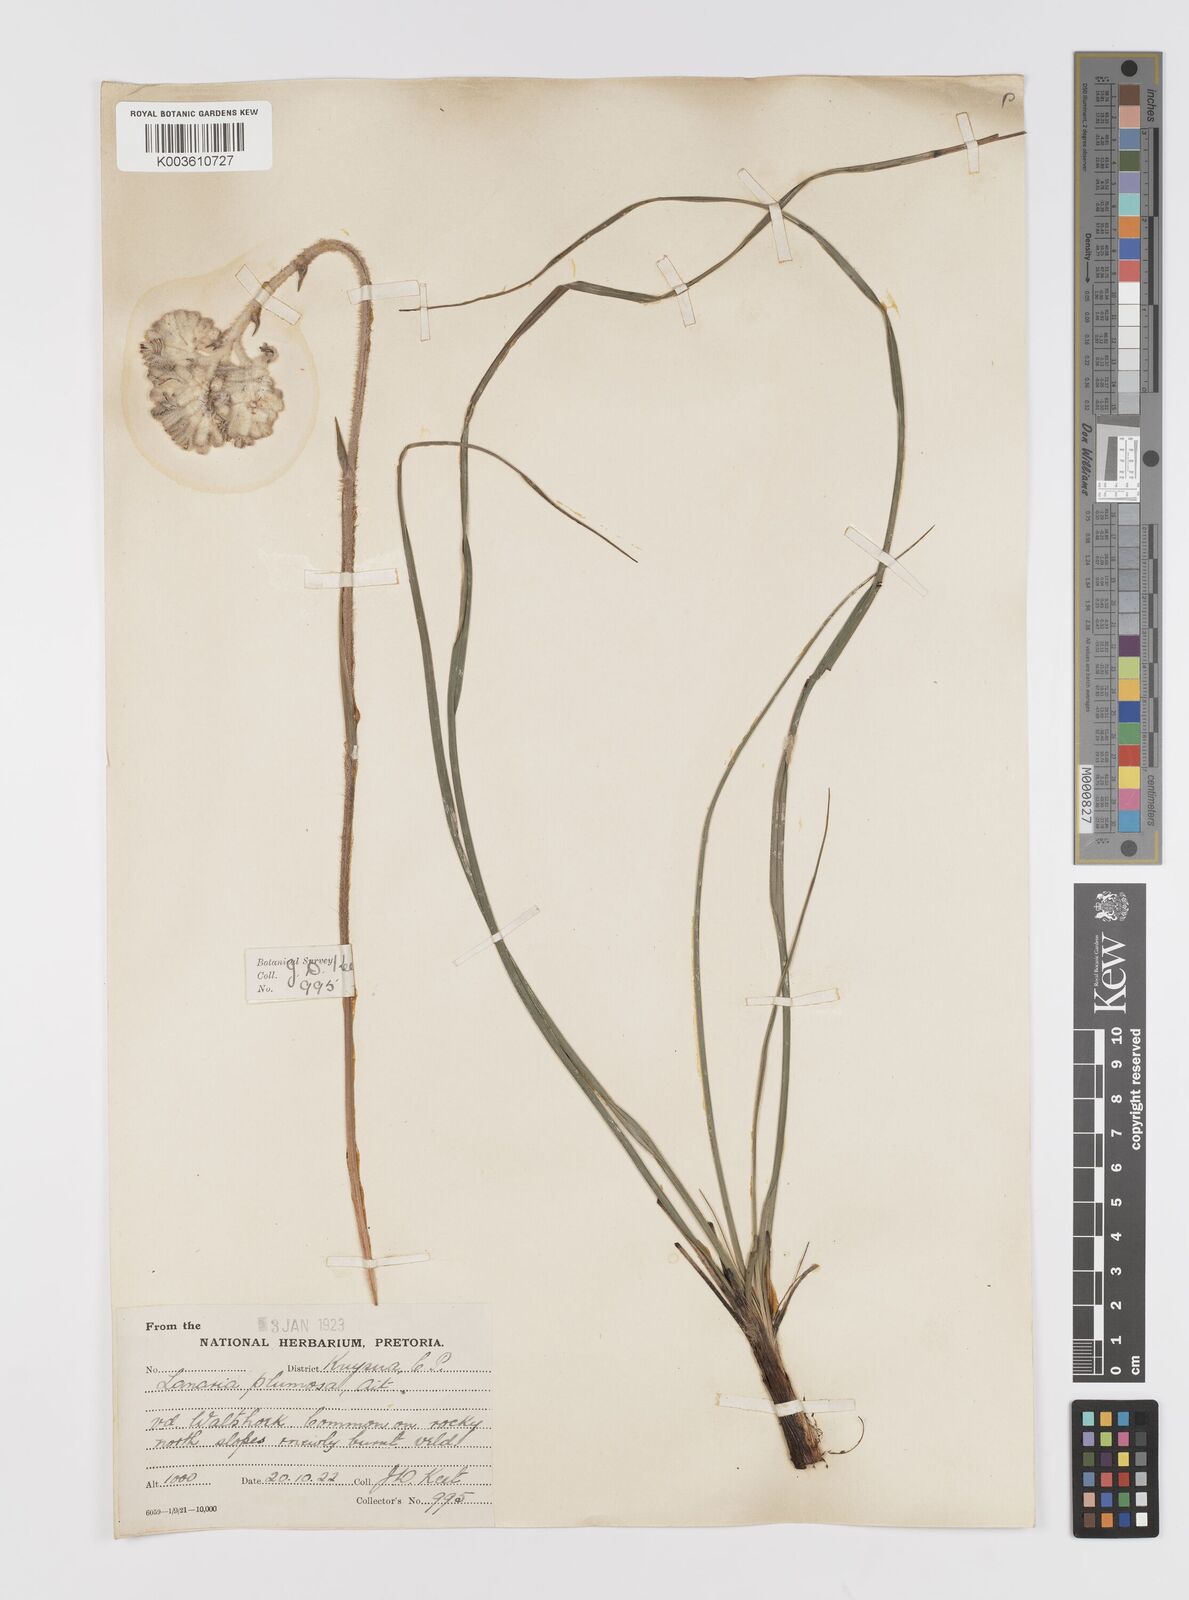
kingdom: Plantae
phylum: Tracheophyta
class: Liliopsida
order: Asparagales
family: Lanariaceae
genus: Lanaria
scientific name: Lanaria lanata
